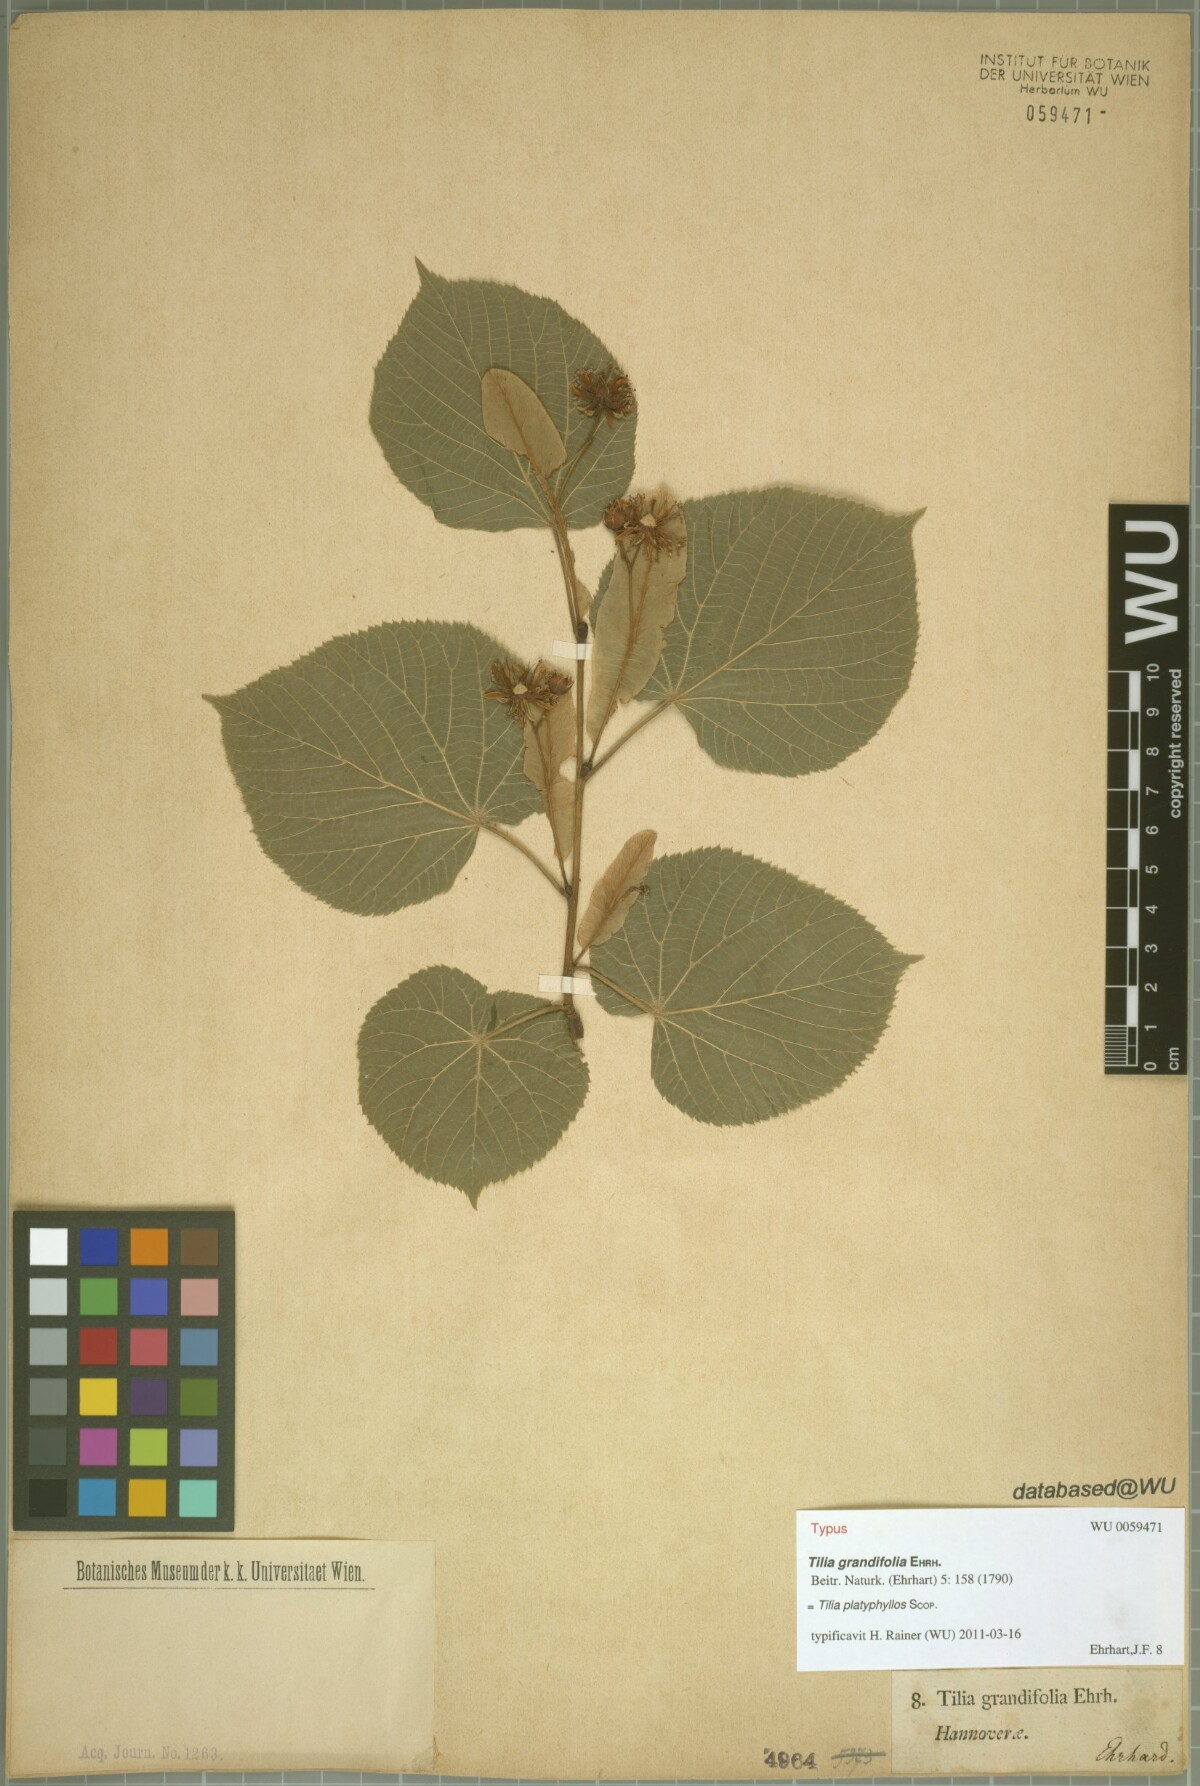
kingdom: Plantae
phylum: Tracheophyta
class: Magnoliopsida
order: Malvales
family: Malvaceae
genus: Tilia
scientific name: Tilia platyphyllos
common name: Large-leaved lime
